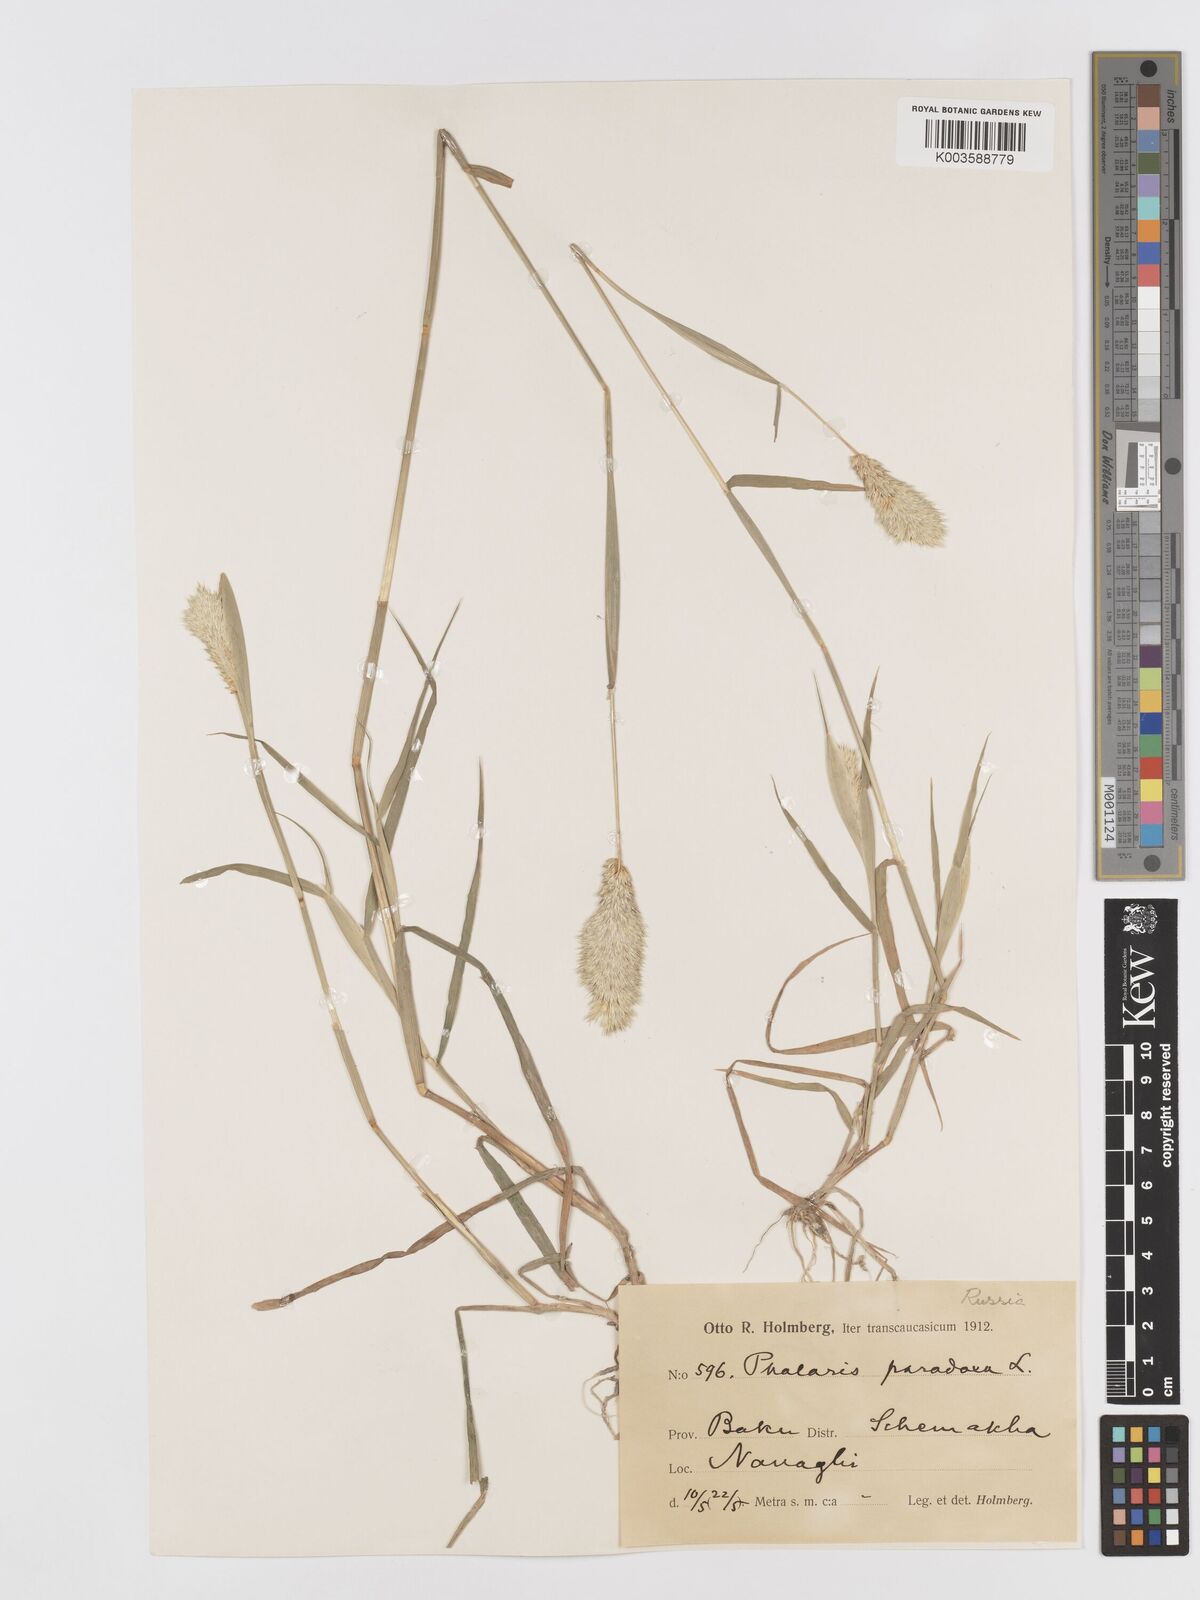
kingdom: Plantae
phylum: Tracheophyta
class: Liliopsida
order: Poales
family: Poaceae
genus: Phalaris
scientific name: Phalaris paradoxa
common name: Awned canary-grass
